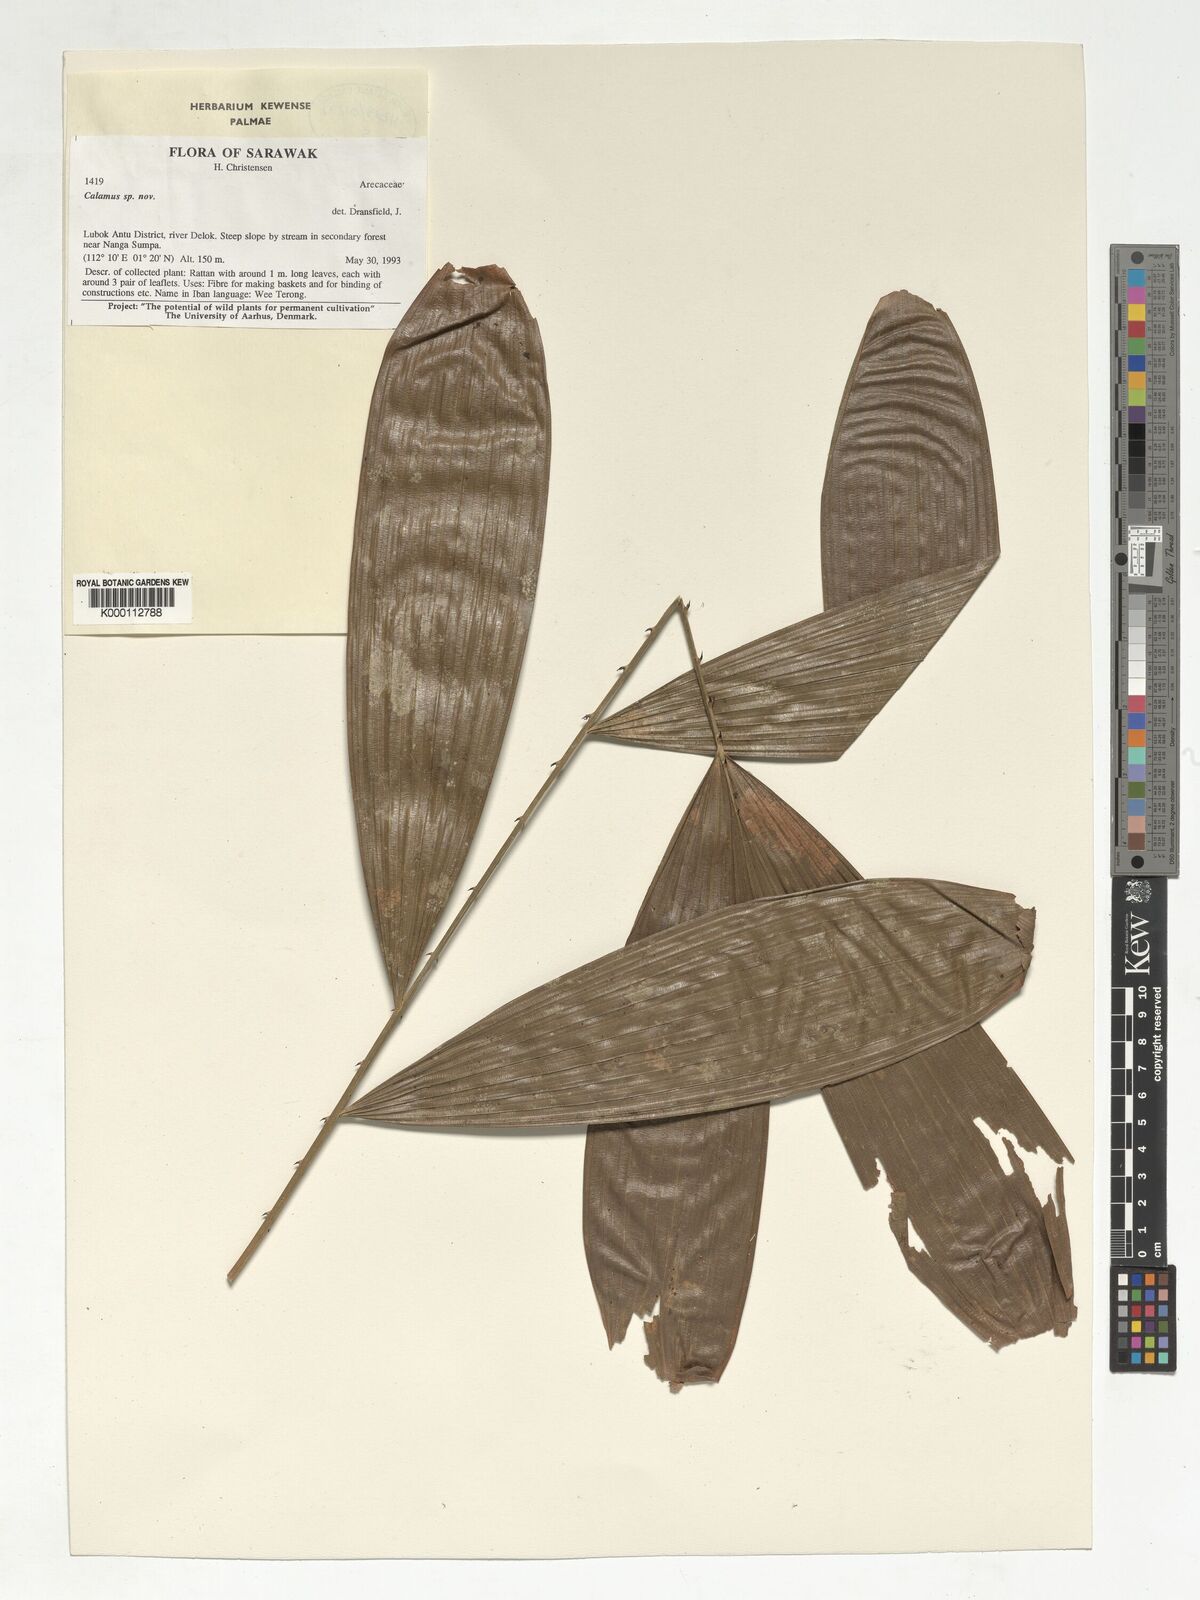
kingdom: Plantae
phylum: Tracheophyta
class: Liliopsida
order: Arecales
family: Arecaceae
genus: Calamus
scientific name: Calamus
